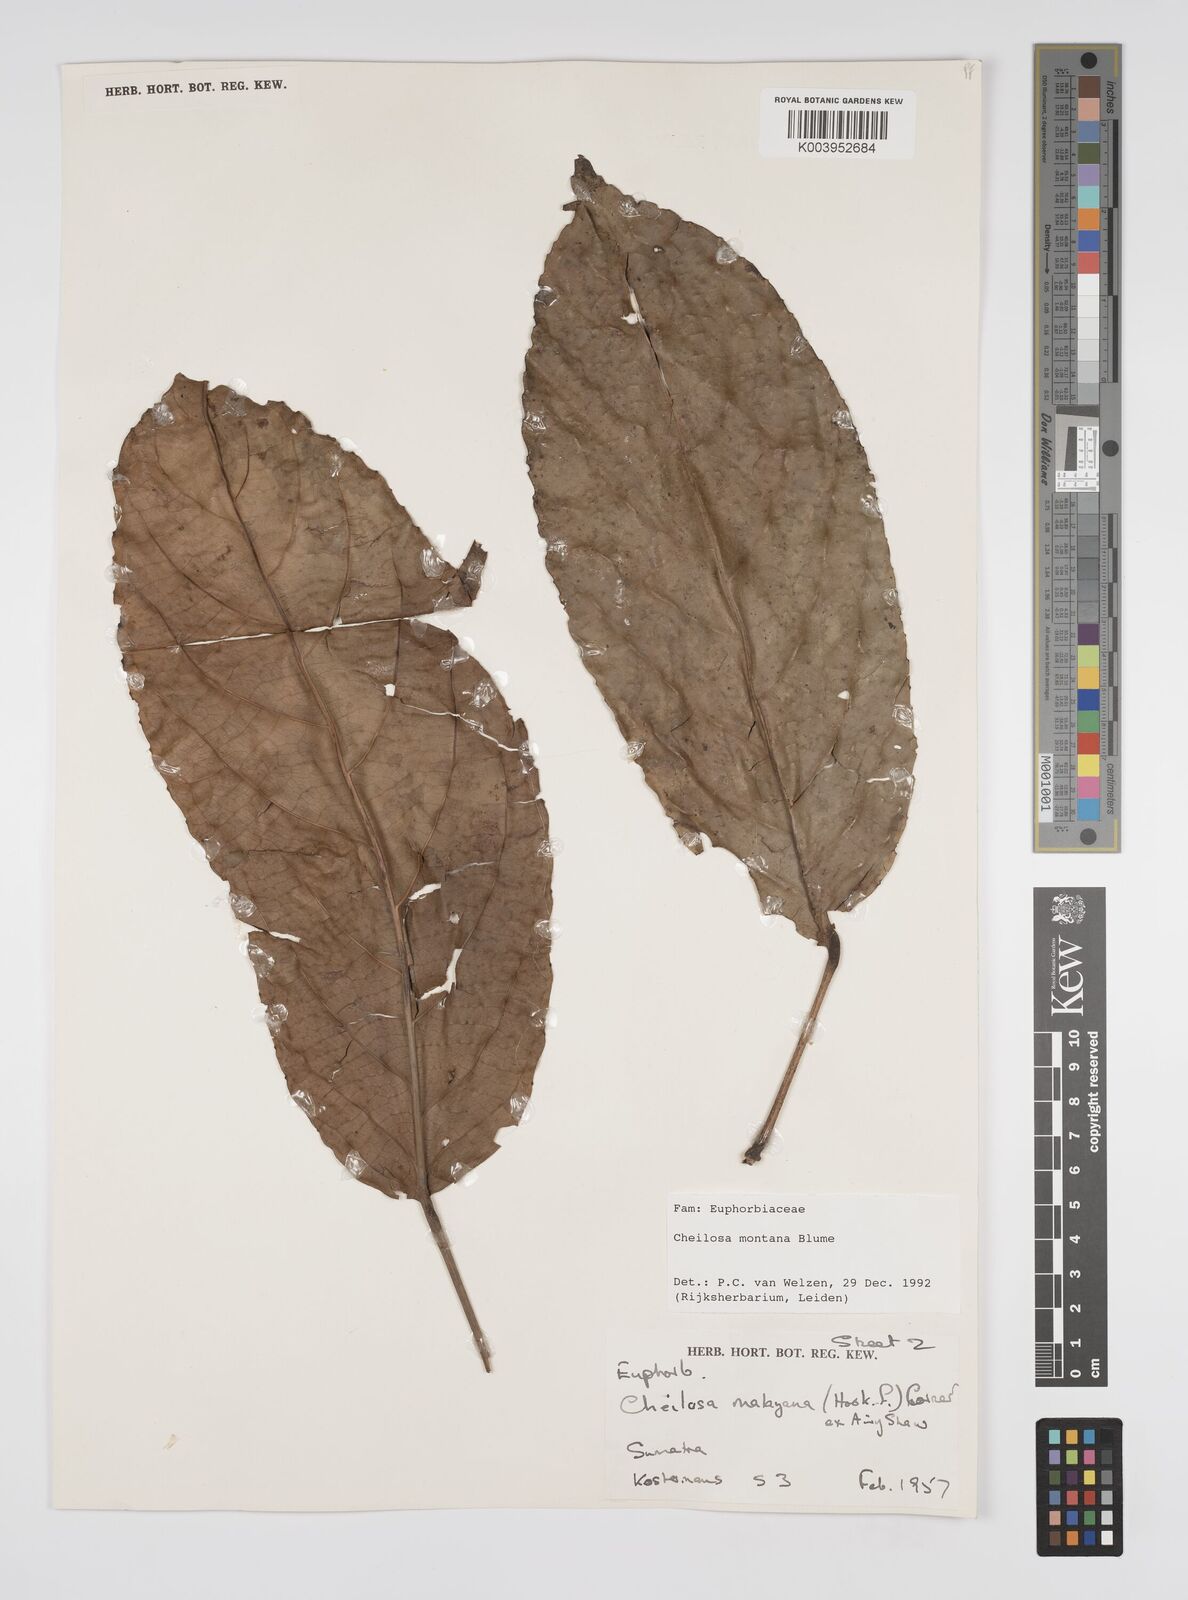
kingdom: Plantae
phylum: Tracheophyta
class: Magnoliopsida
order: Malpighiales
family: Euphorbiaceae
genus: Cheilosa
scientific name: Cheilosa montana
